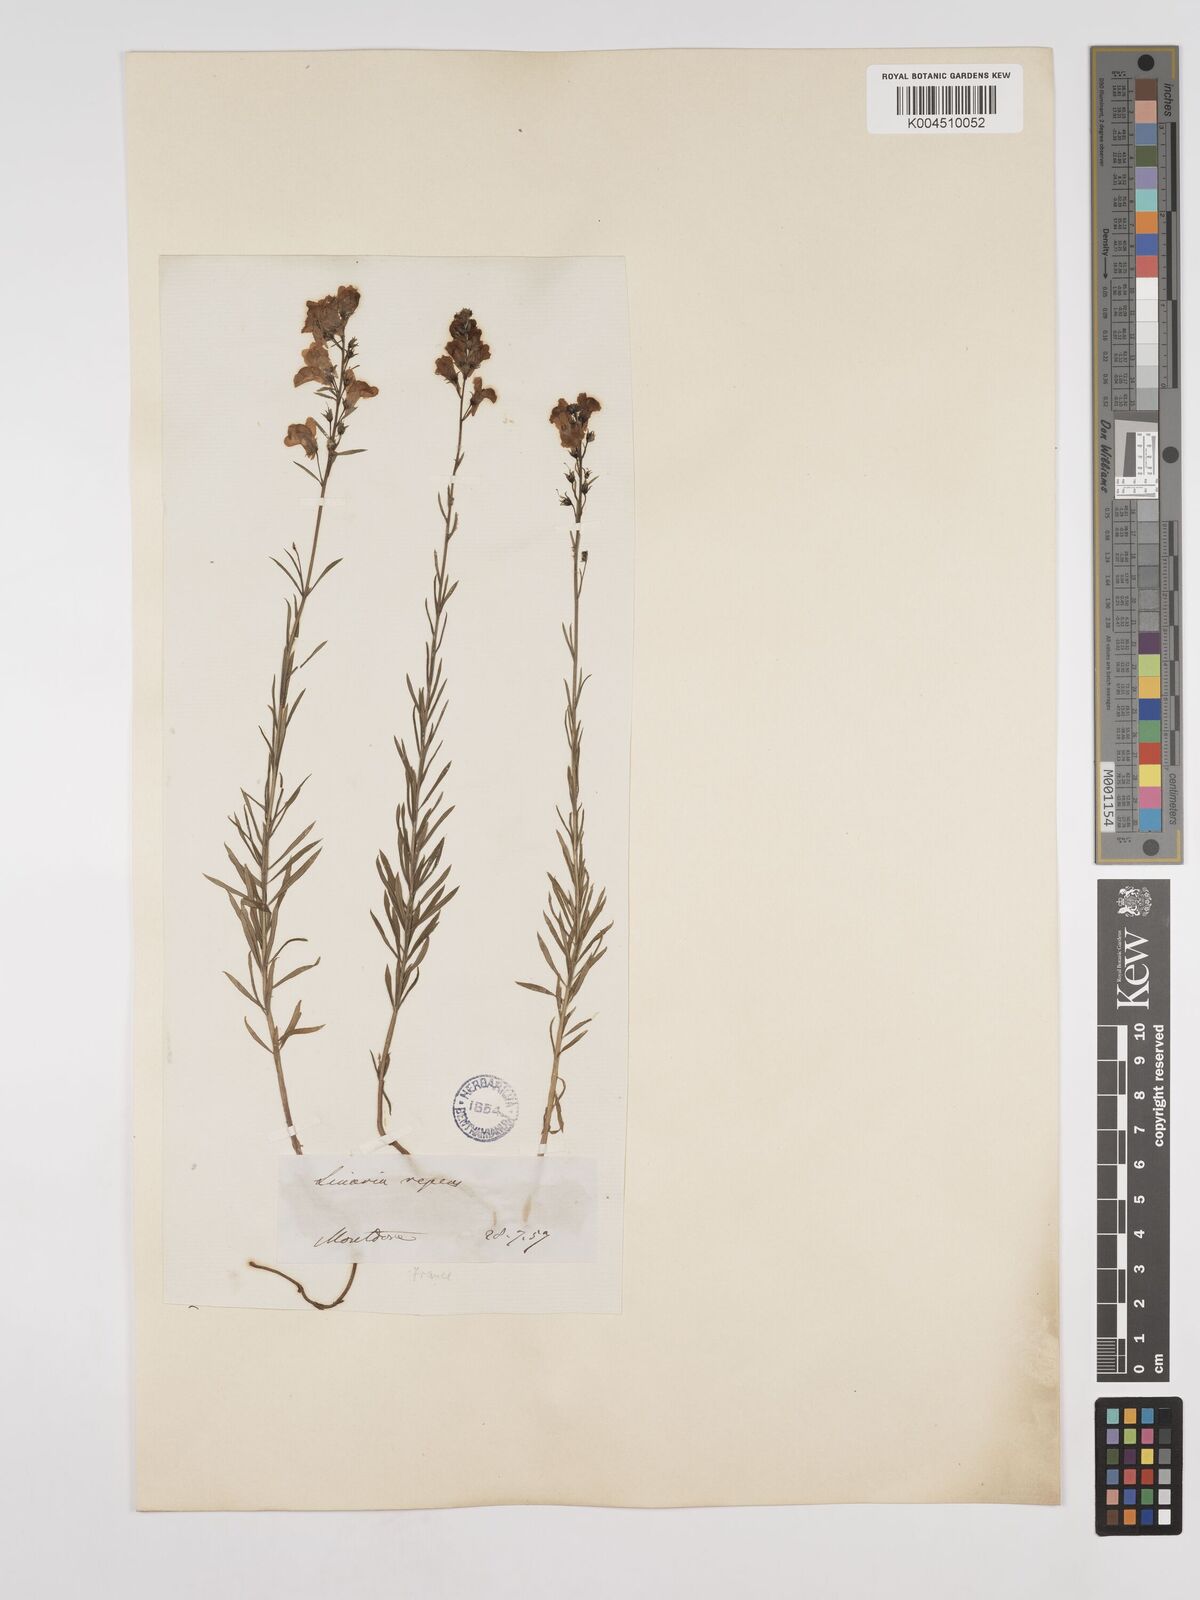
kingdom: Plantae
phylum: Tracheophyta
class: Magnoliopsida
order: Lamiales
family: Plantaginaceae
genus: Linaria
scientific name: Linaria repens
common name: Pale toadflax
